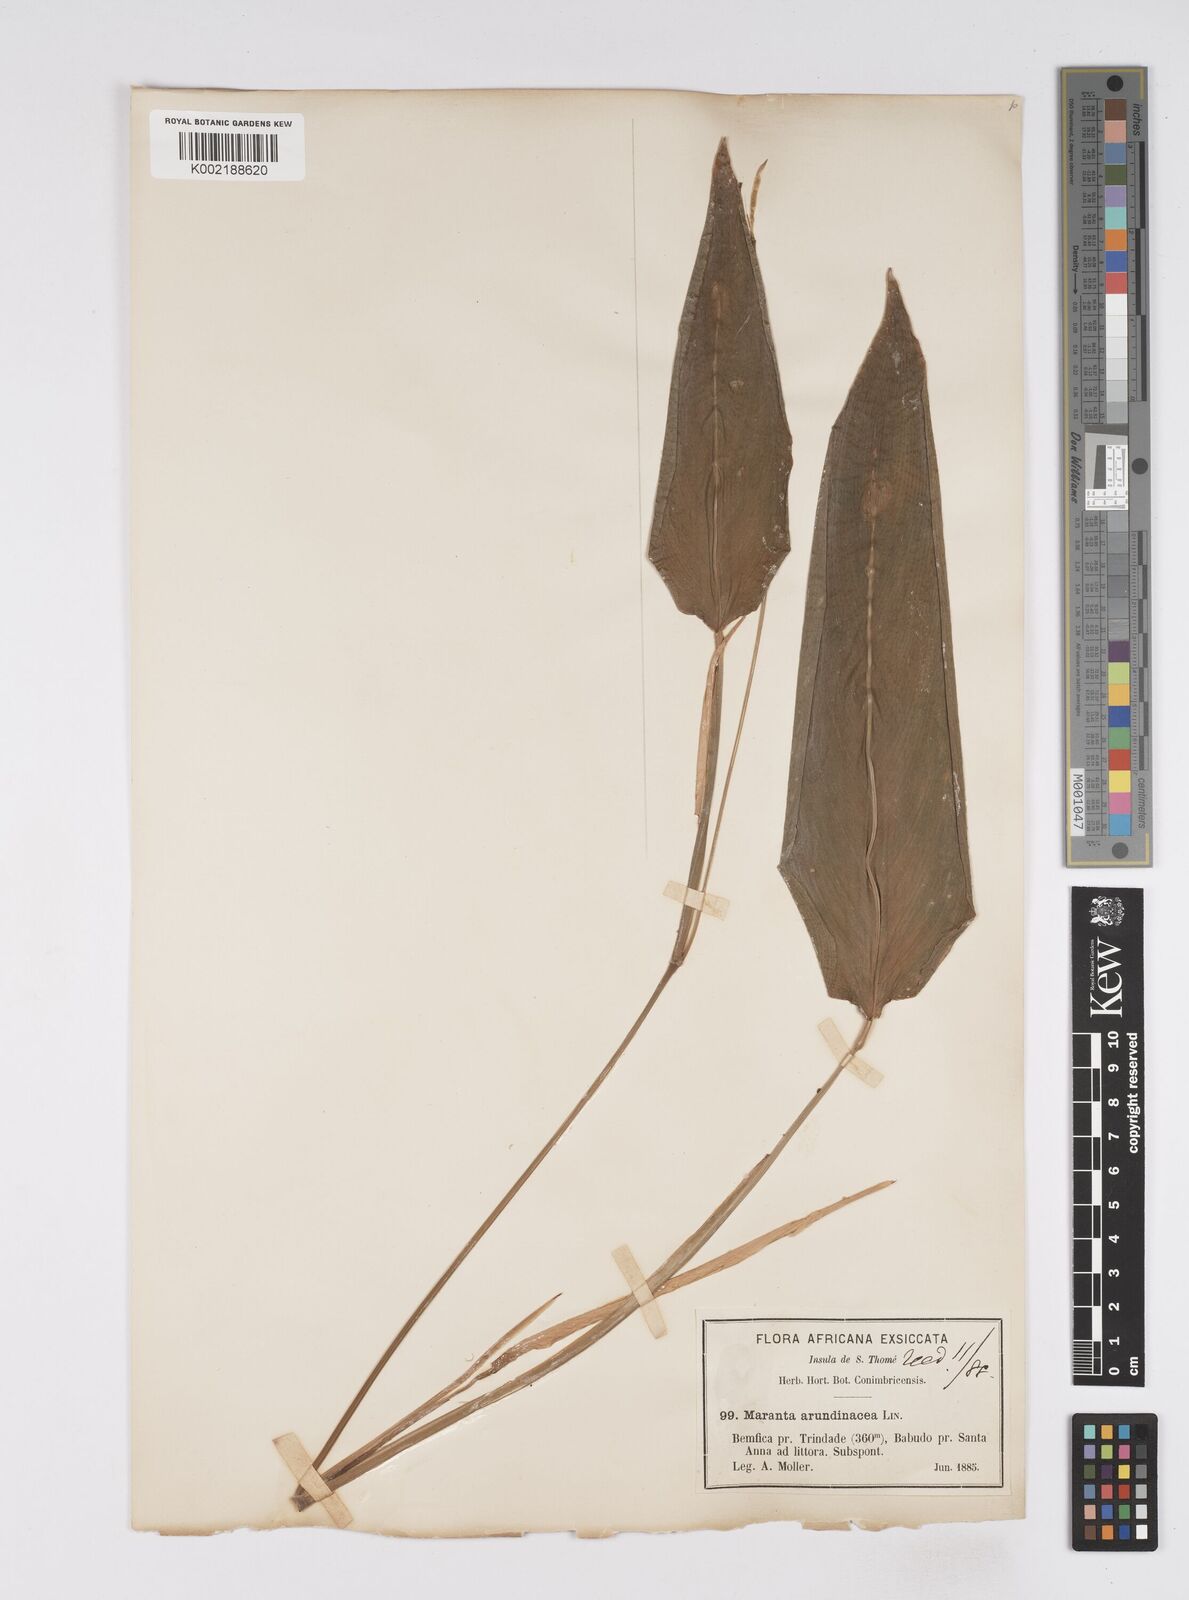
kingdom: Plantae
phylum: Tracheophyta
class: Liliopsida
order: Zingiberales
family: Marantaceae
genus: Maranta
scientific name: Maranta arundinacea
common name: Arrowroot
